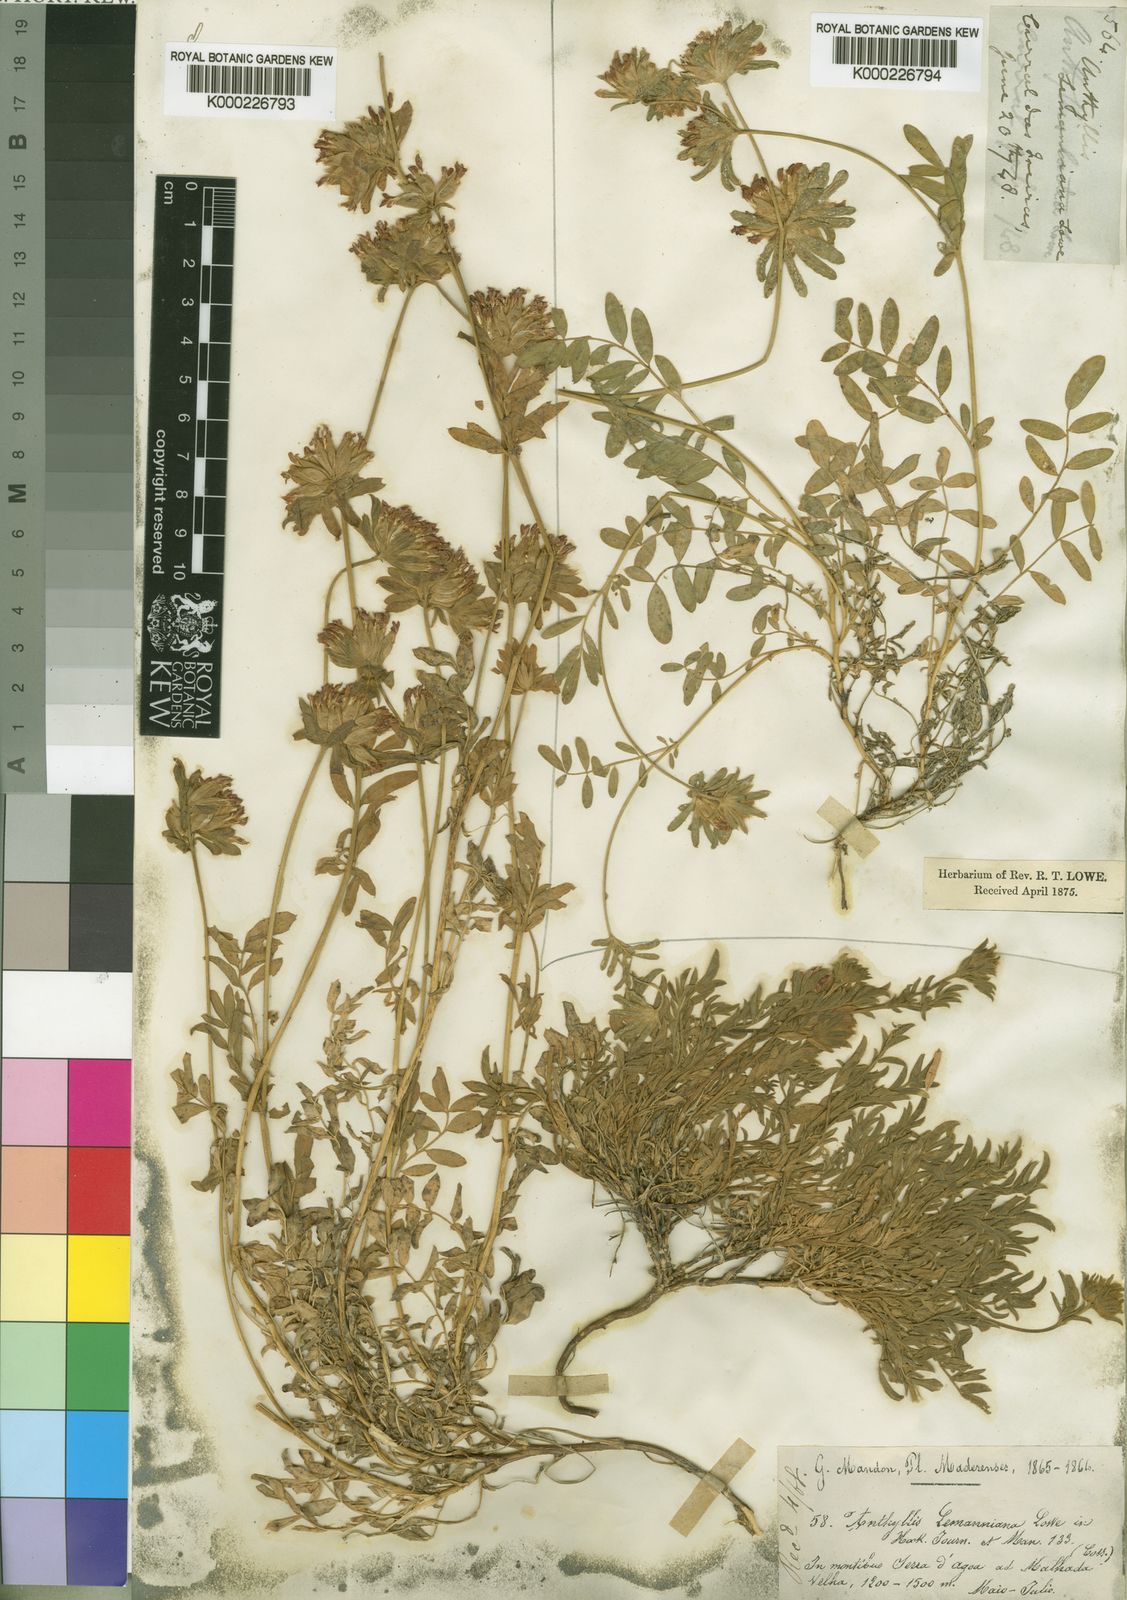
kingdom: Plantae
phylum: Tracheophyta
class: Magnoliopsida
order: Fabales
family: Fabaceae
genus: Anthyllis
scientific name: Anthyllis lemanniana
